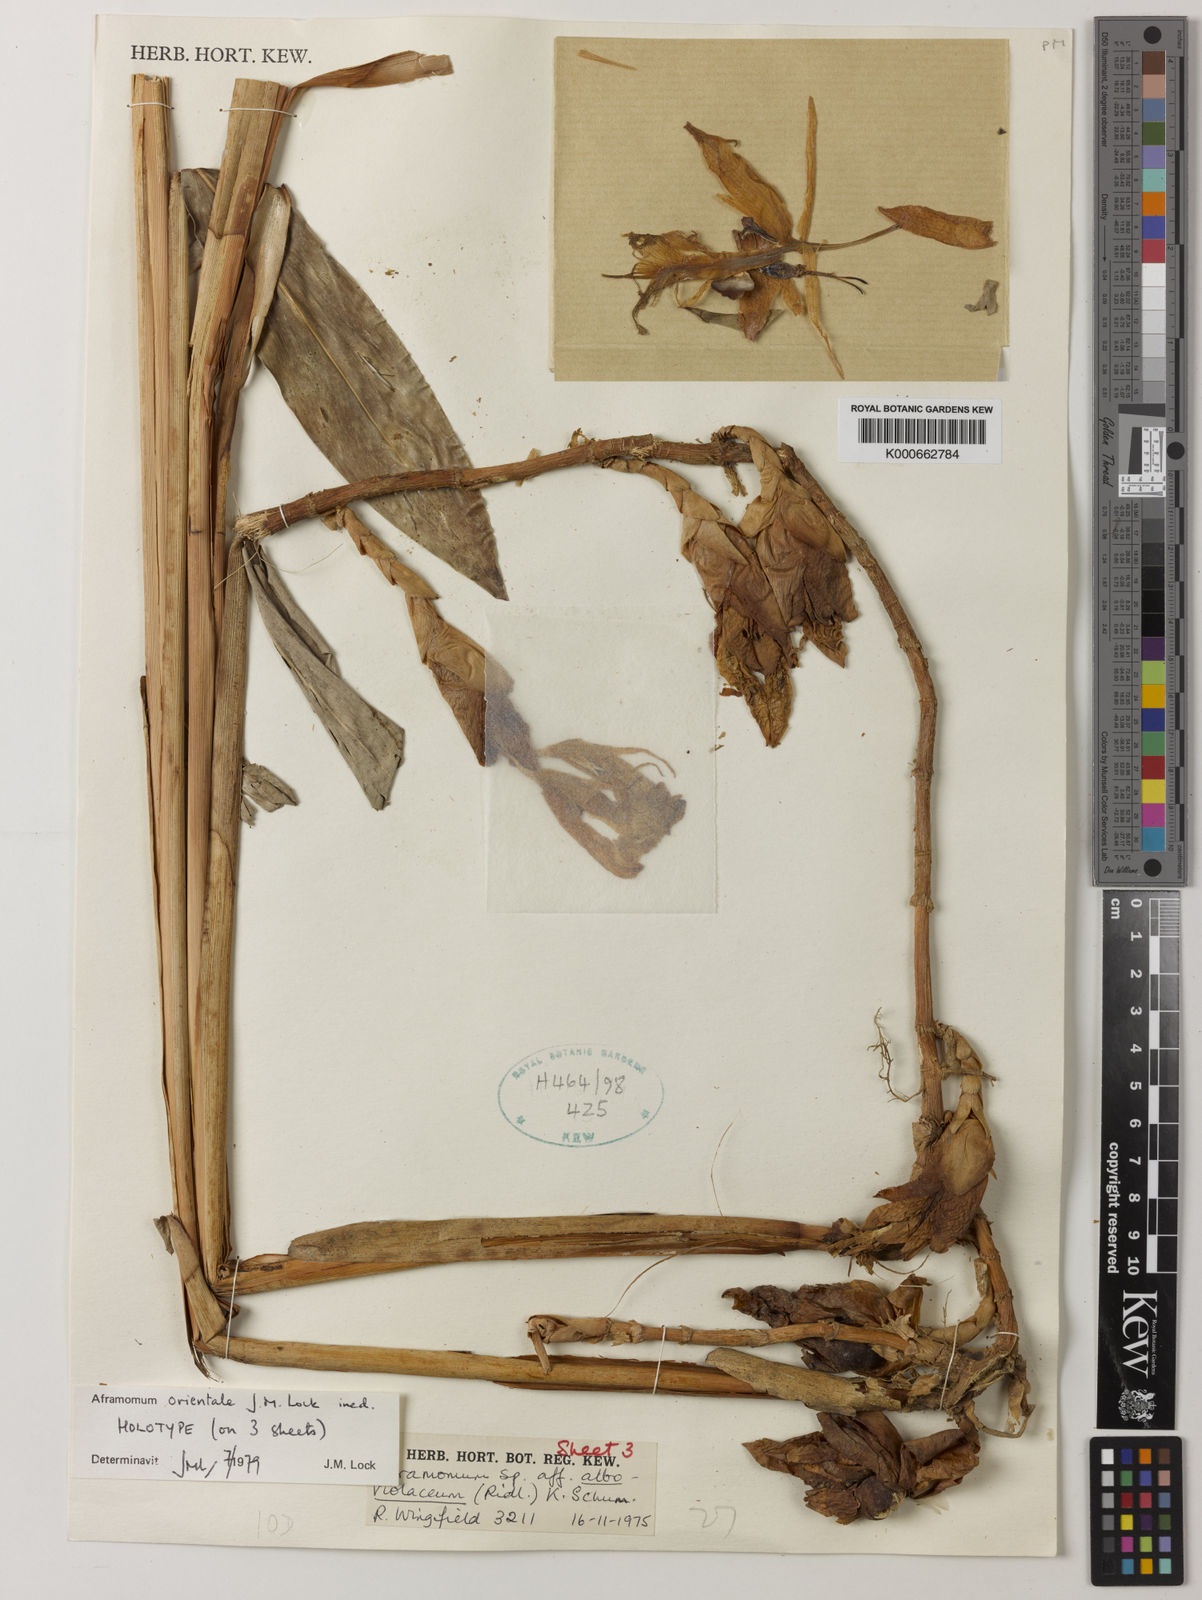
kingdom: Plantae
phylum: Tracheophyta
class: Liliopsida
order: Zingiberales
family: Zingiberaceae
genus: Aframomum
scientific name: Aframomum orientale
